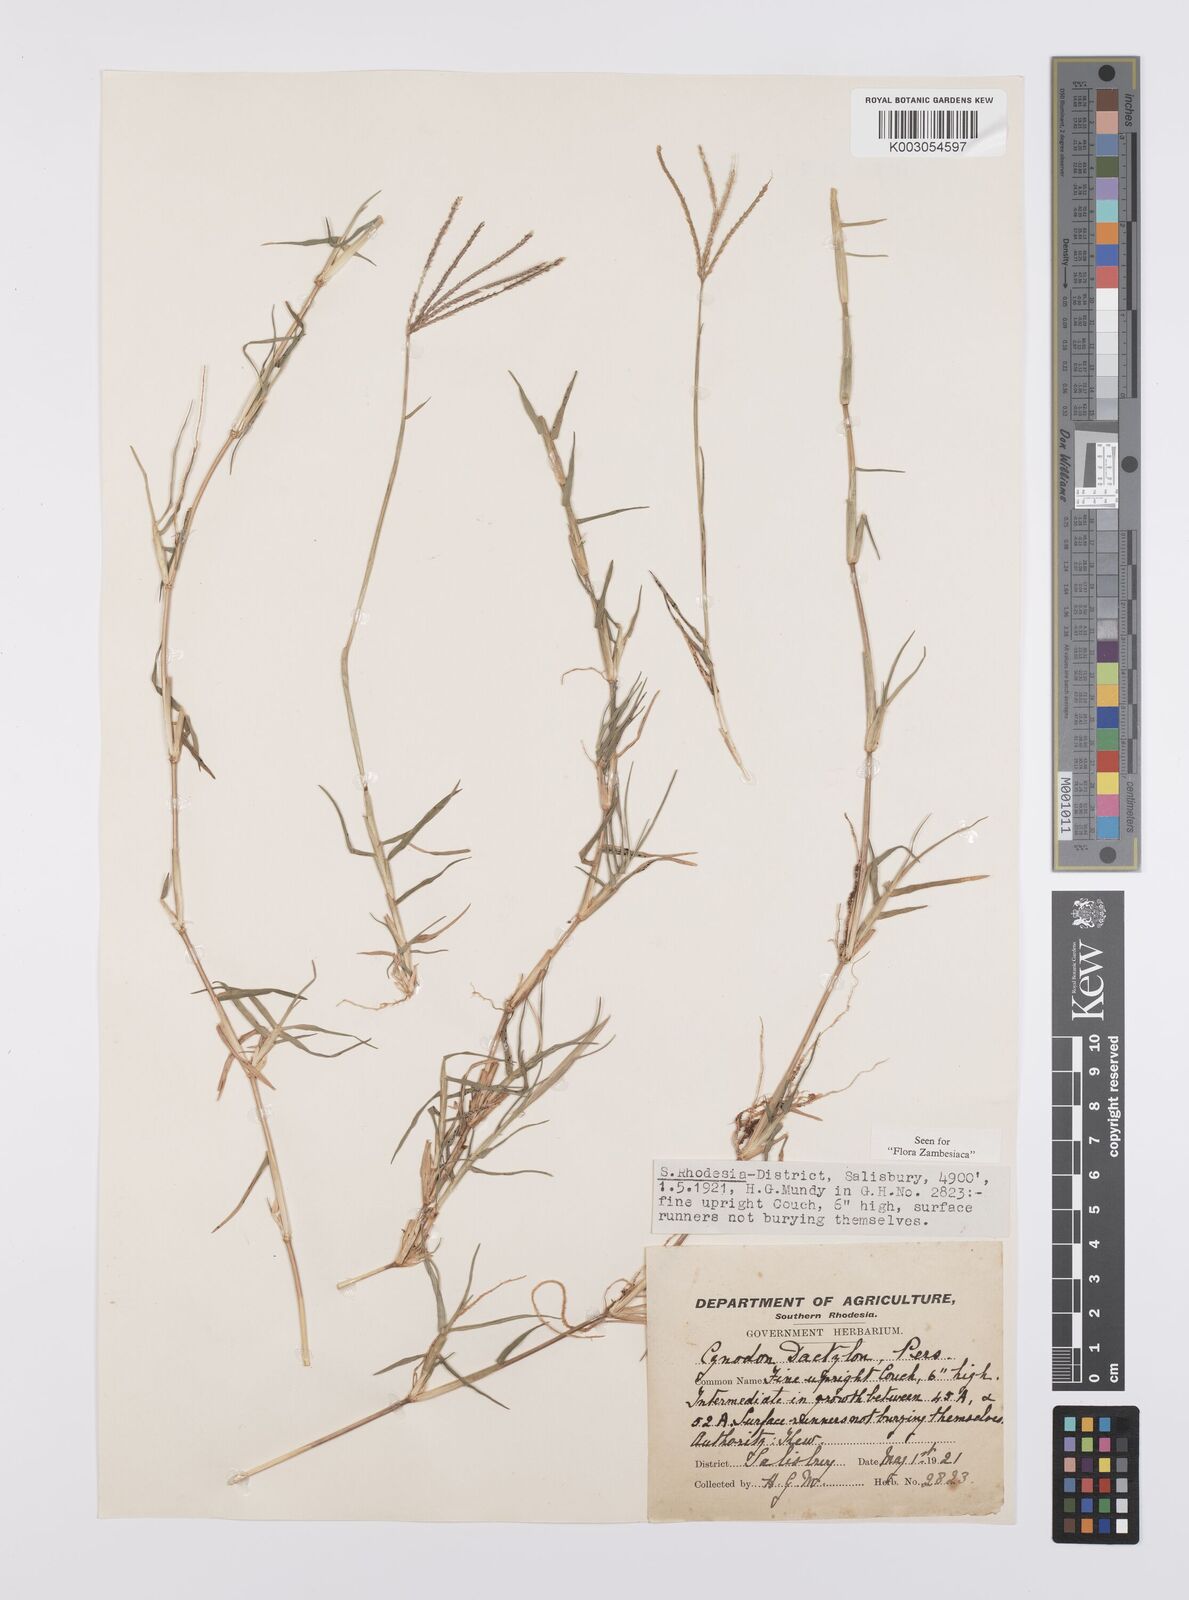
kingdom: Plantae
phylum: Tracheophyta
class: Liliopsida
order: Poales
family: Poaceae
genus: Cynodon
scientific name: Cynodon dactylon
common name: Bermuda grass
